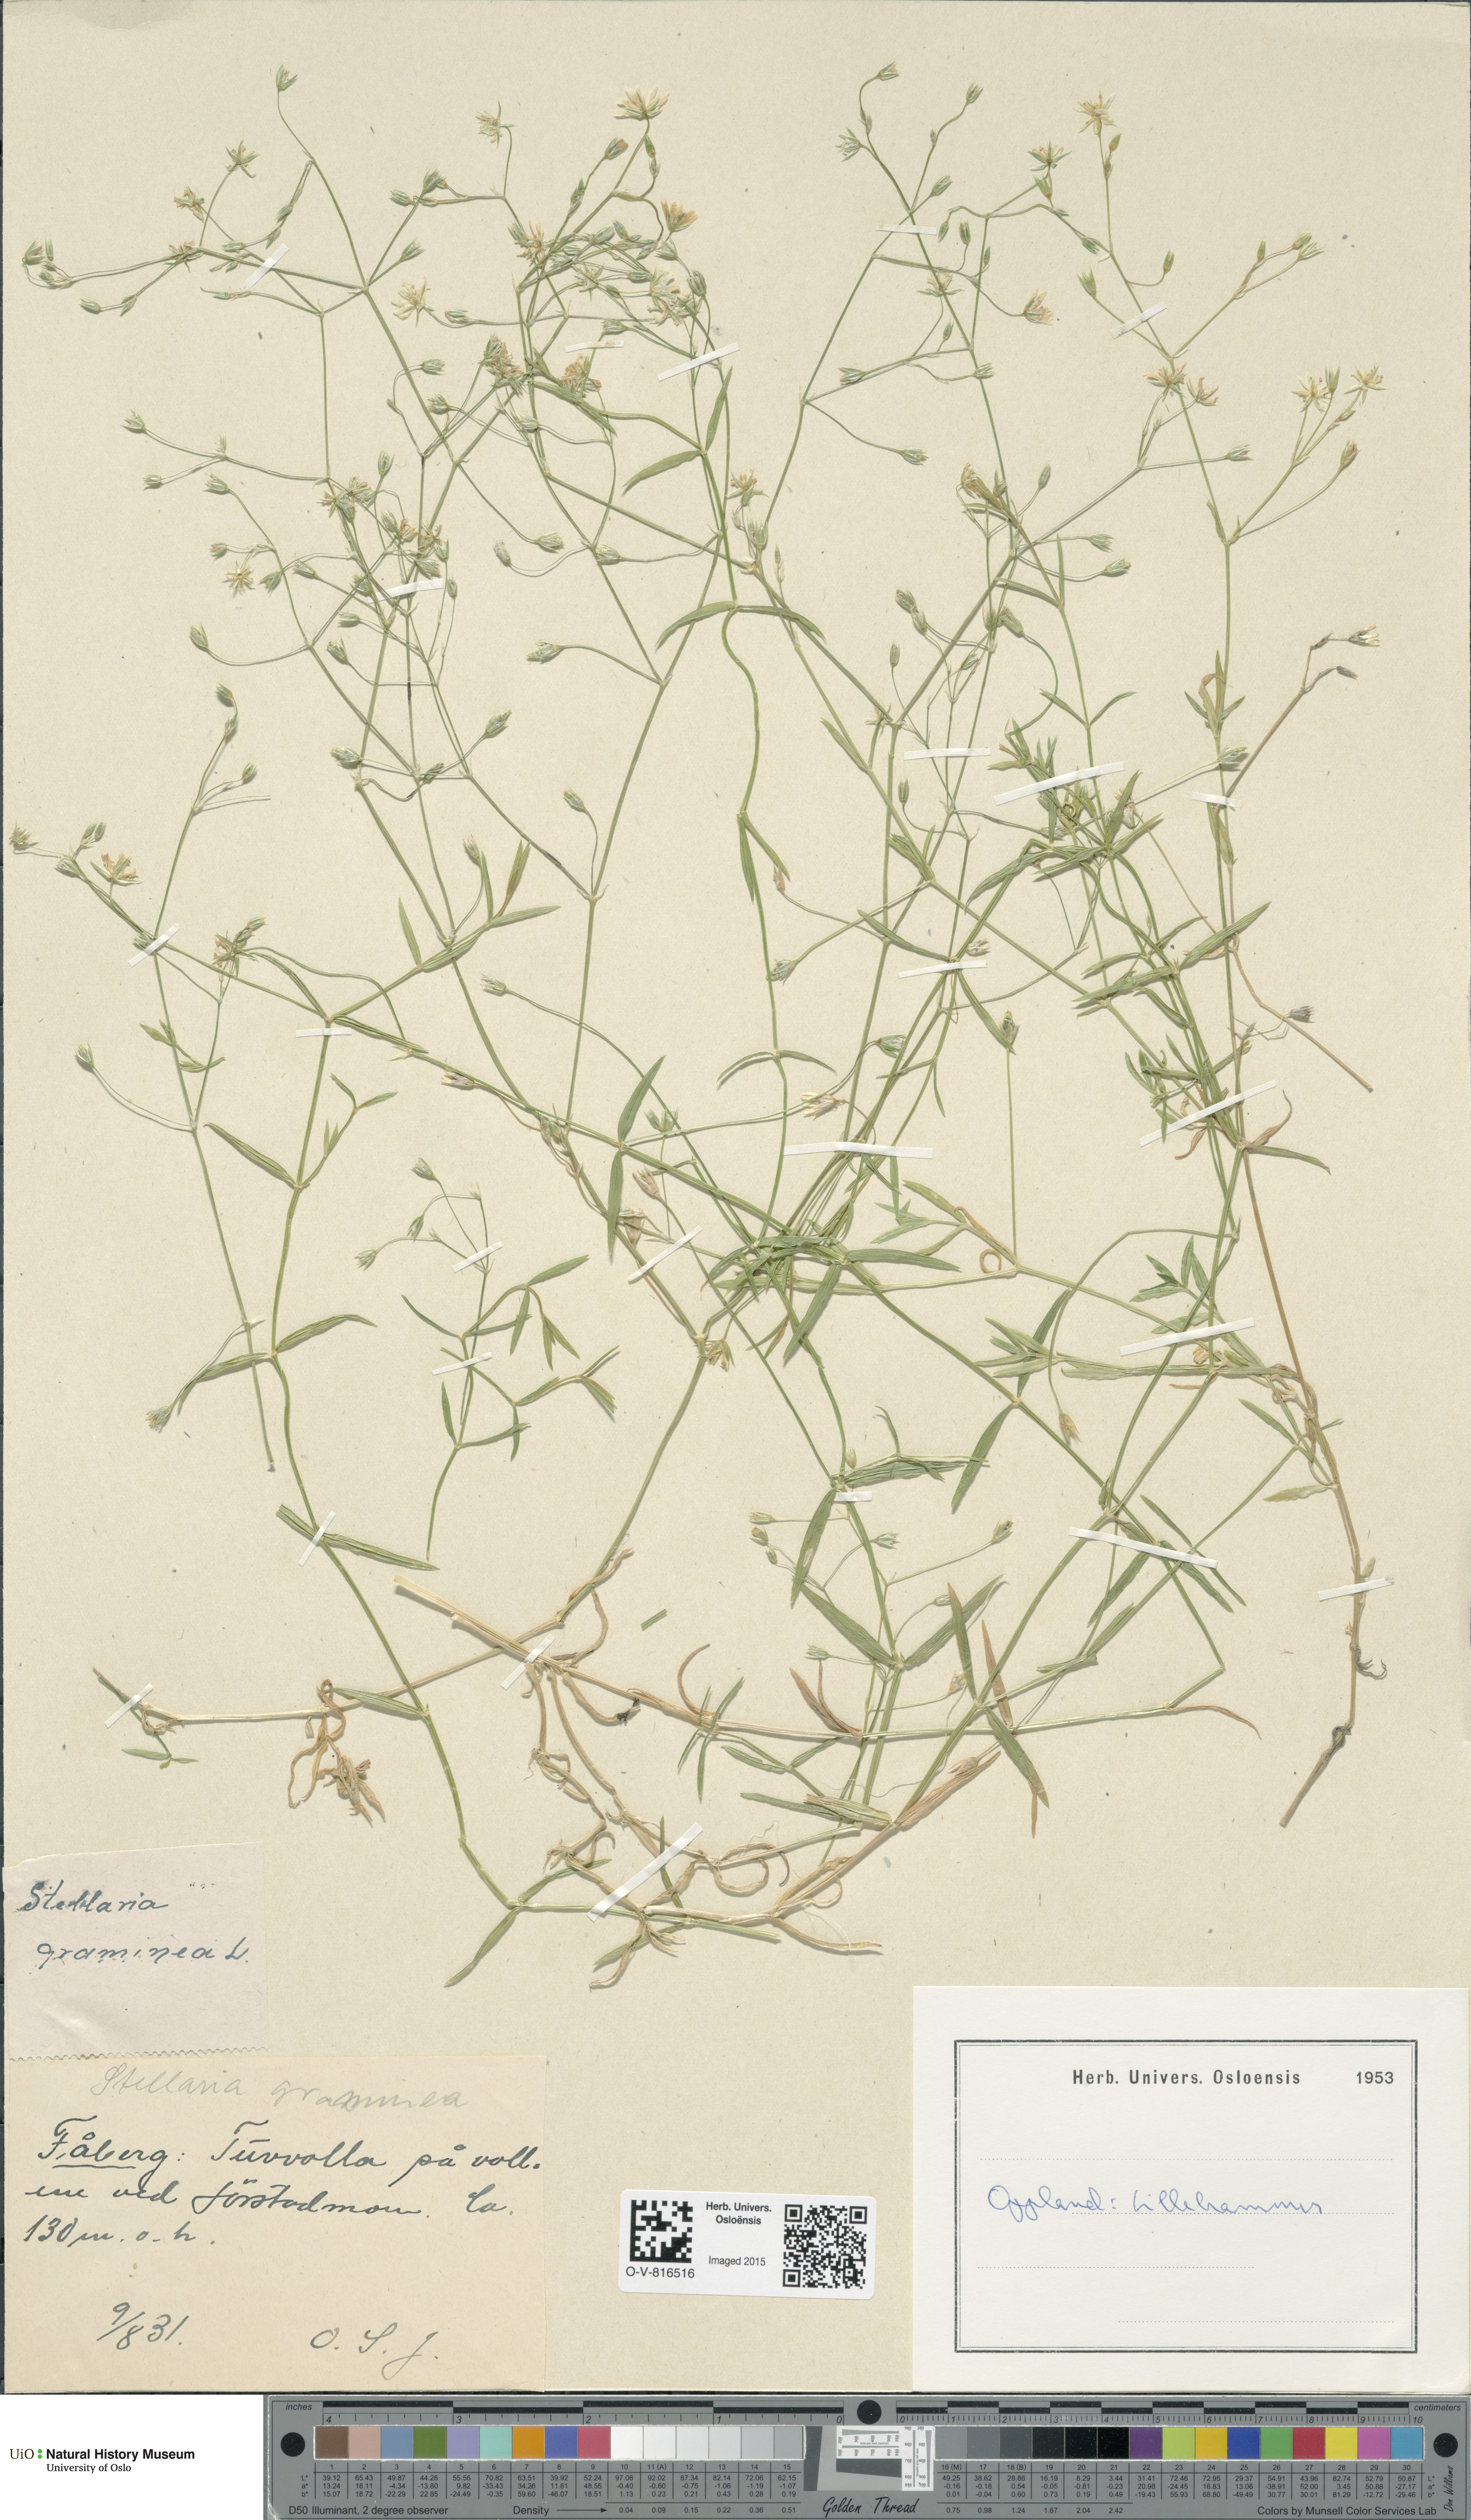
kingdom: Plantae
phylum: Tracheophyta
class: Magnoliopsida
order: Caryophyllales
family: Caryophyllaceae
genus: Stellaria
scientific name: Stellaria graminea
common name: Grass-like starwort
